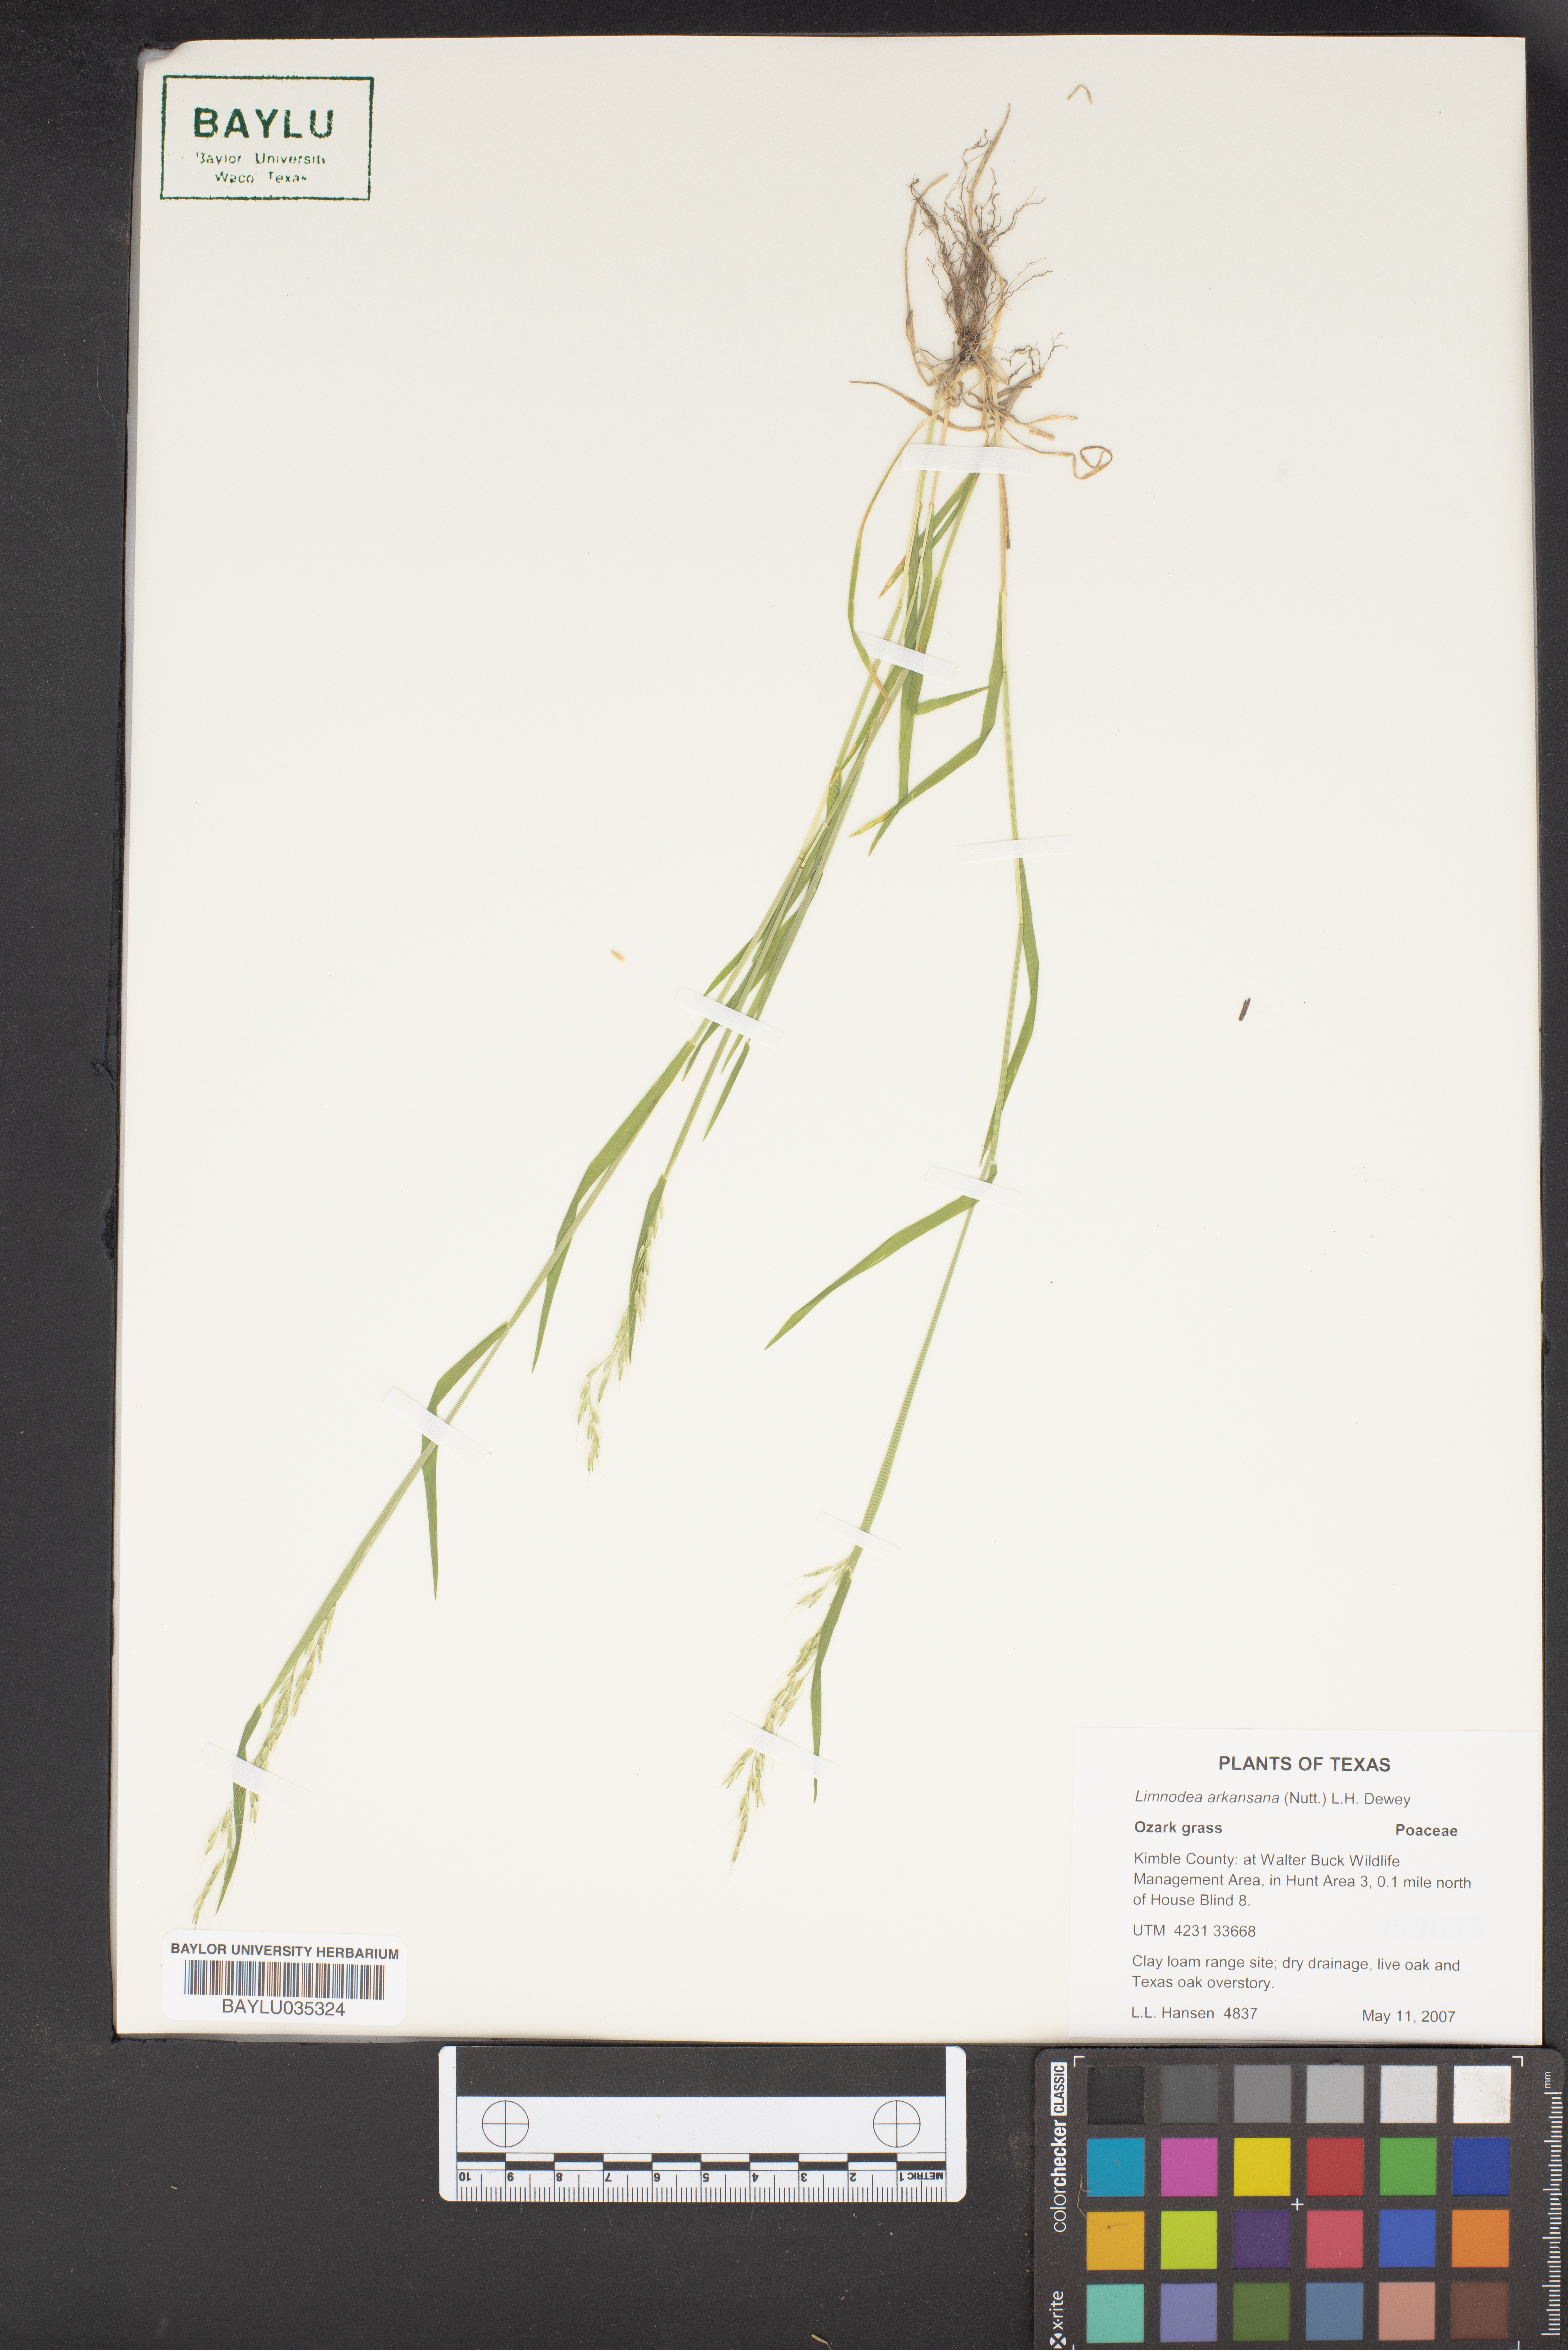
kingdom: Plantae
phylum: Tracheophyta
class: Liliopsida
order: Poales
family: Poaceae
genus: Limnodea
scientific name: Limnodea arkansana
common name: Ozark-grass
